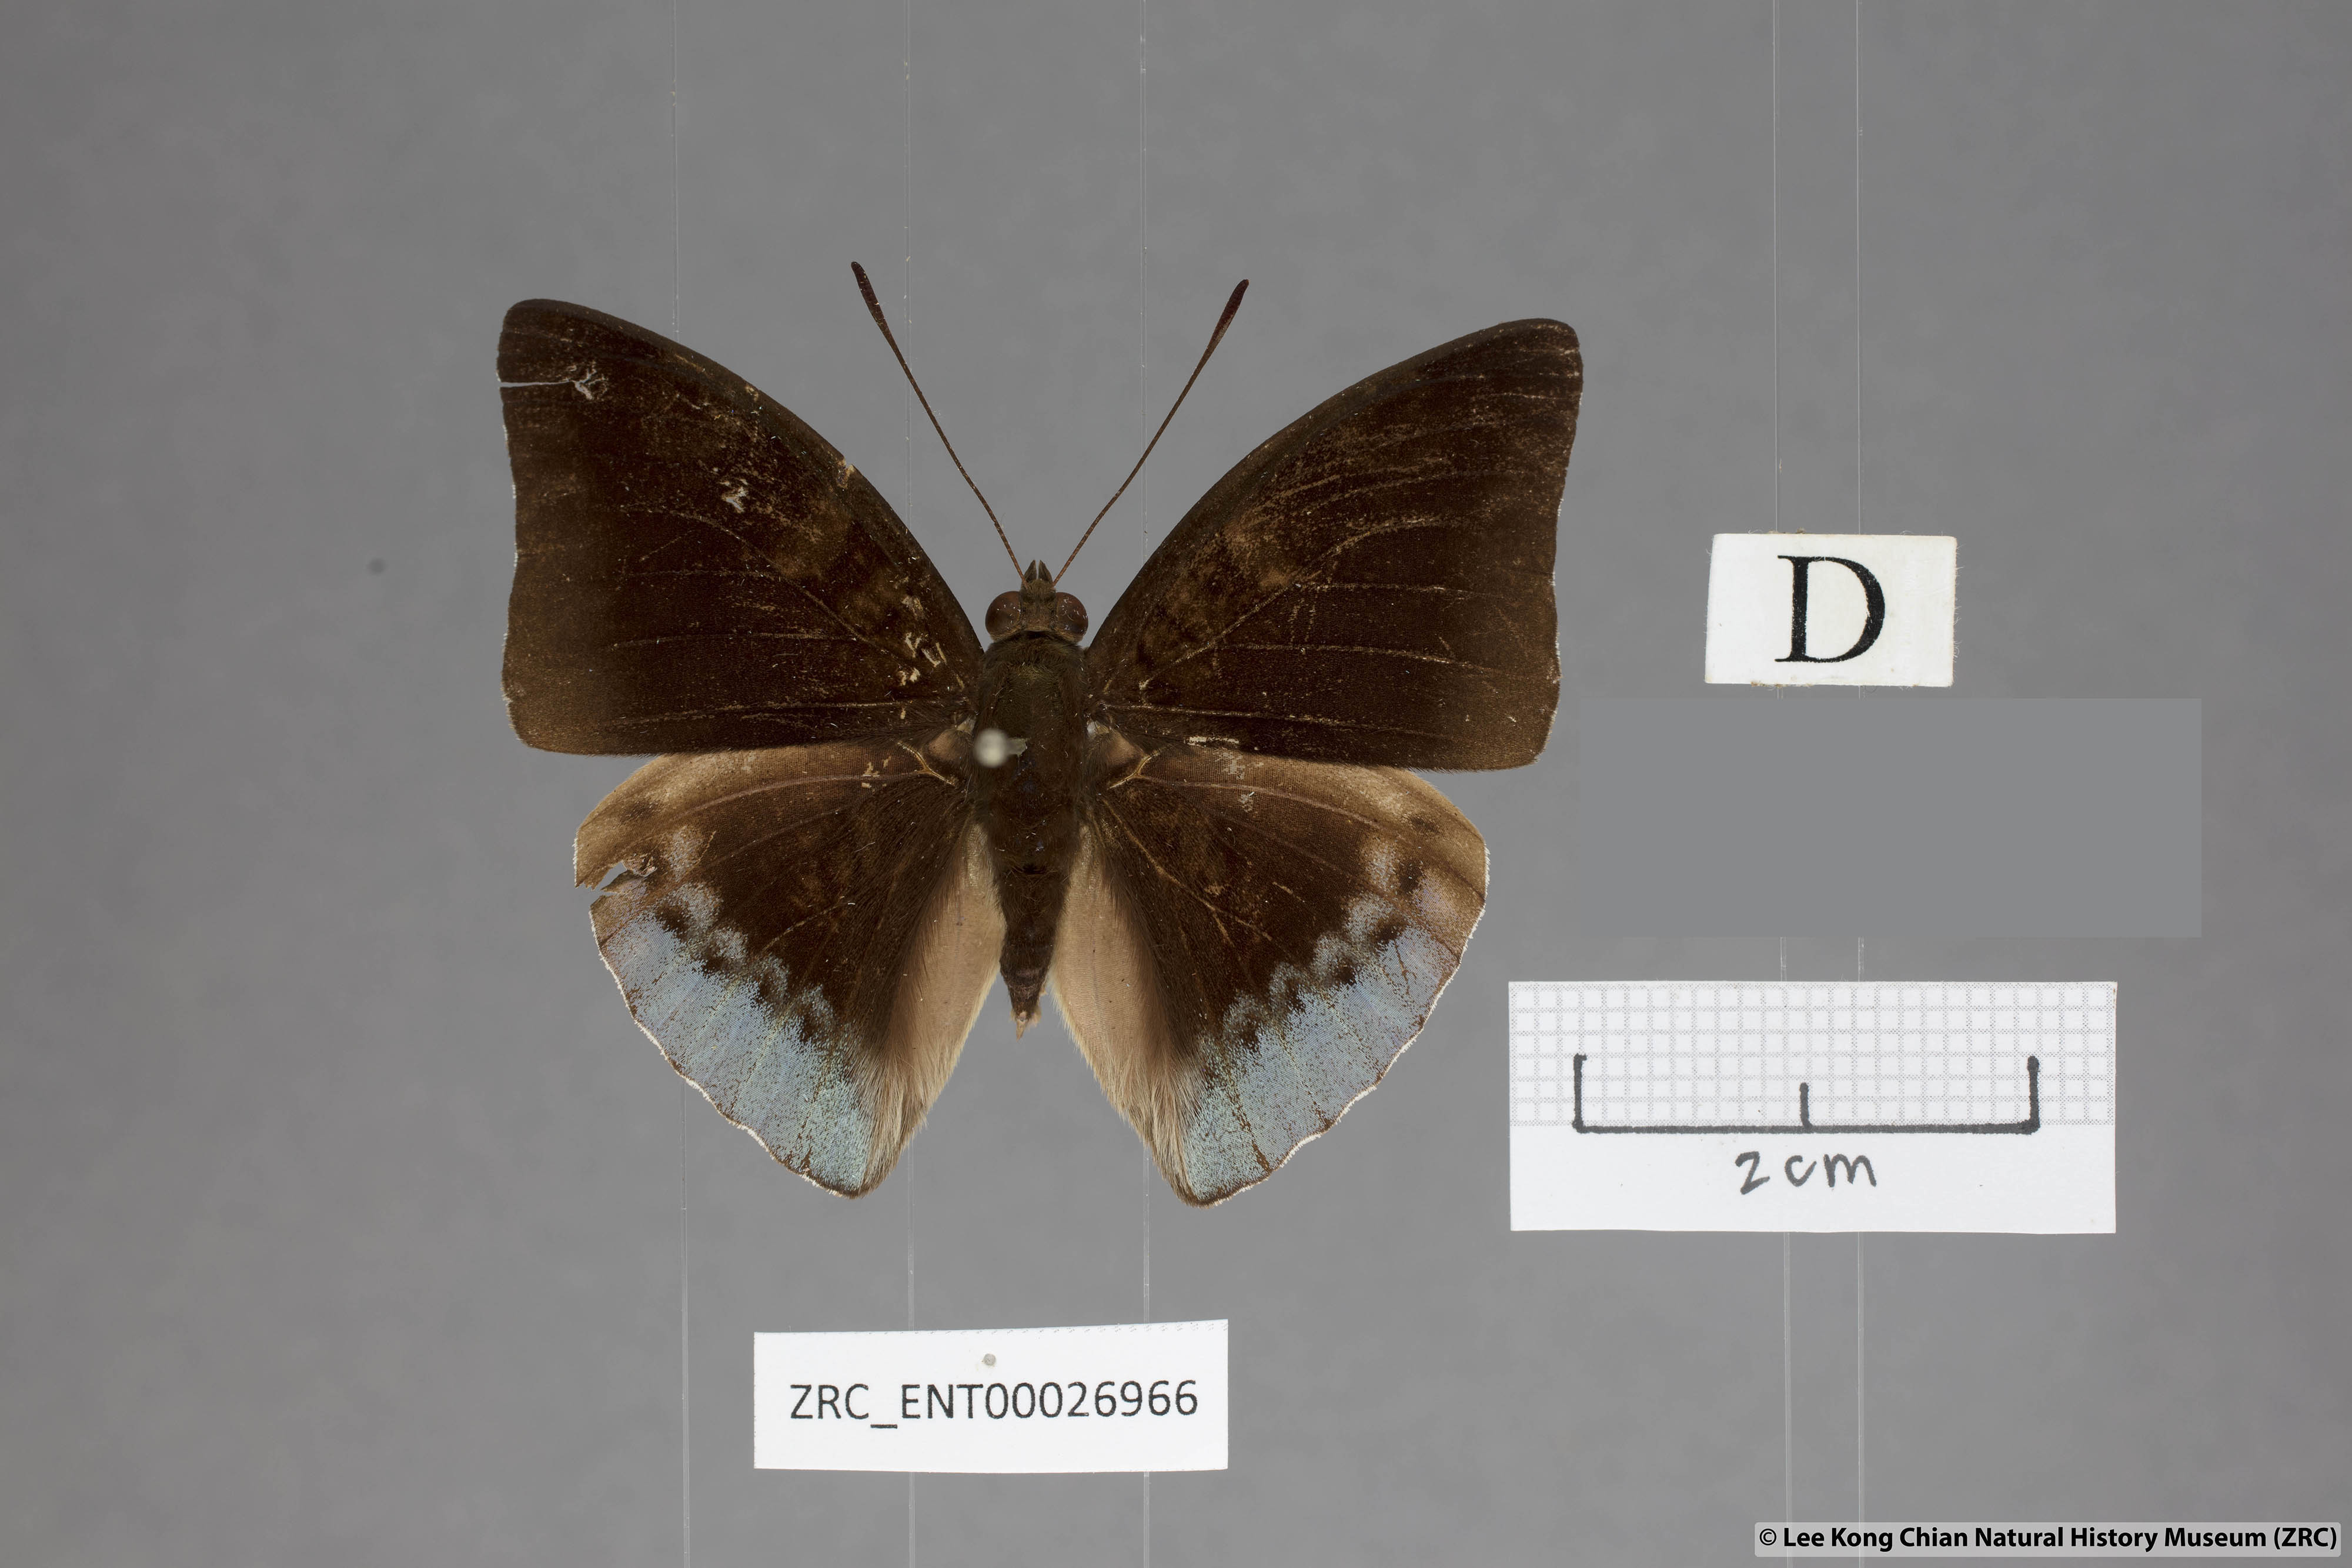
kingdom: Animalia
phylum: Arthropoda
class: Insecta
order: Lepidoptera
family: Nymphalidae
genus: Euthalia
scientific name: Euthalia mahadeva
